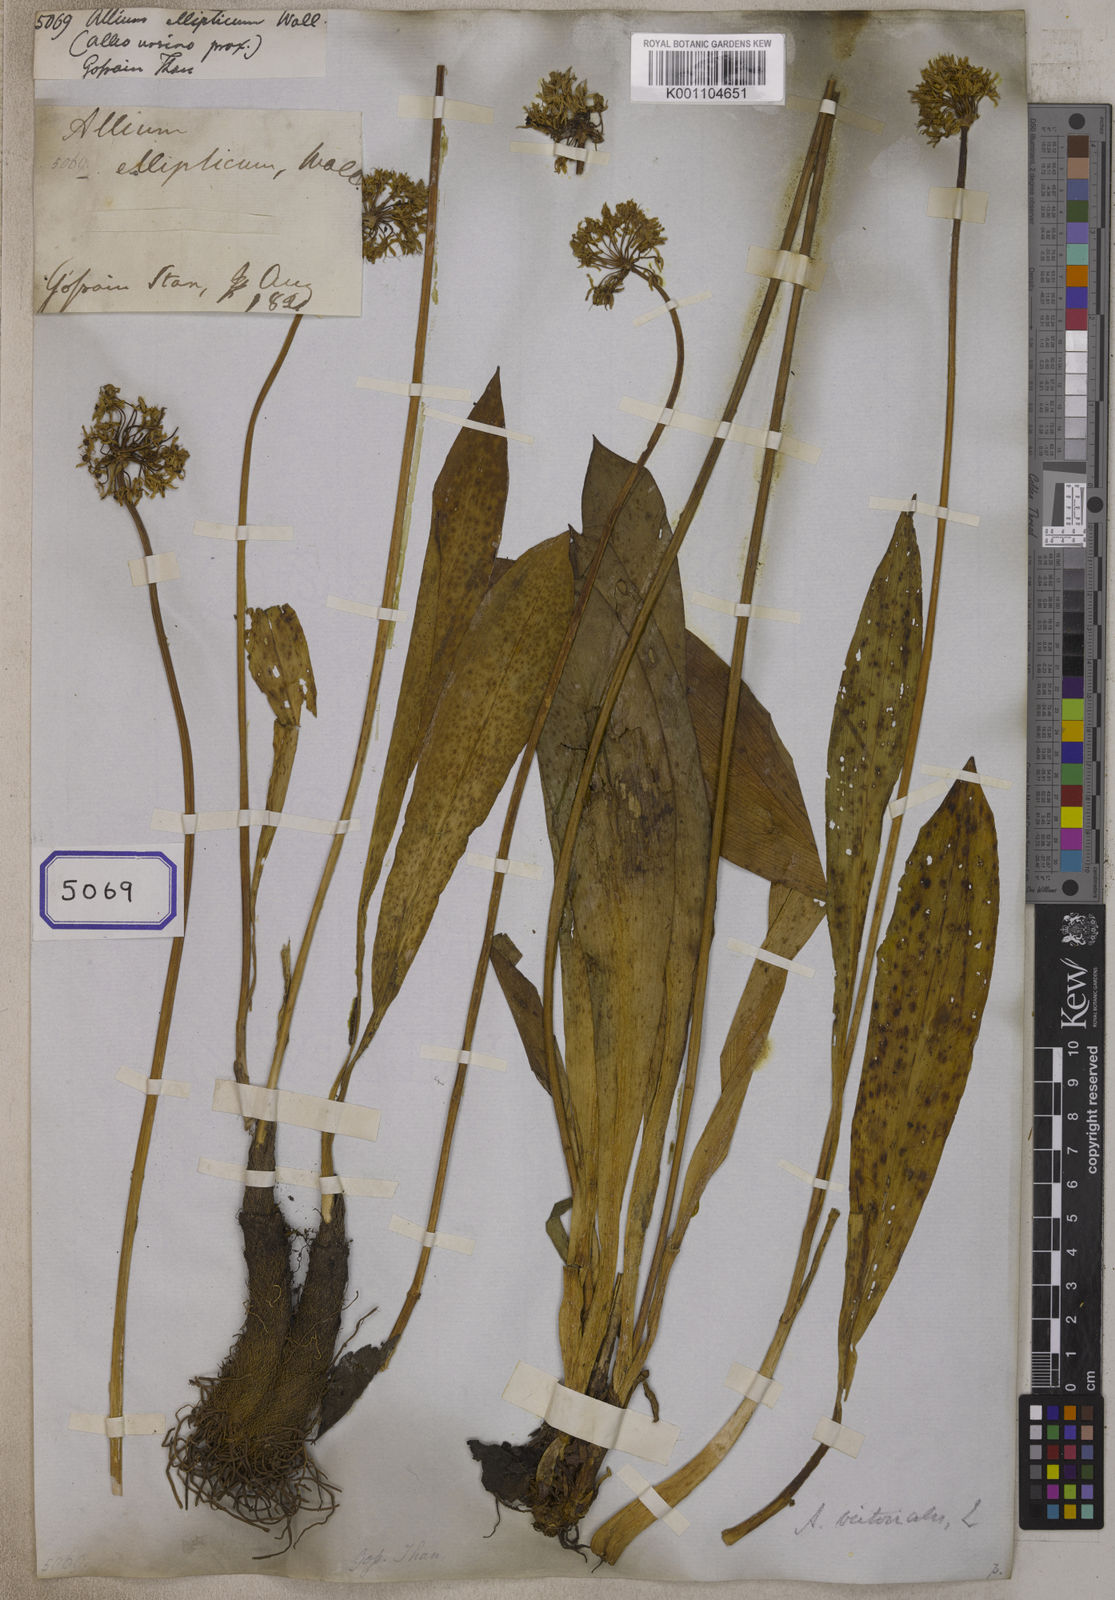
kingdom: Plantae
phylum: Tracheophyta
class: Liliopsida
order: Asparagales
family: Amaryllidaceae
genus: Allium
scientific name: Allium
